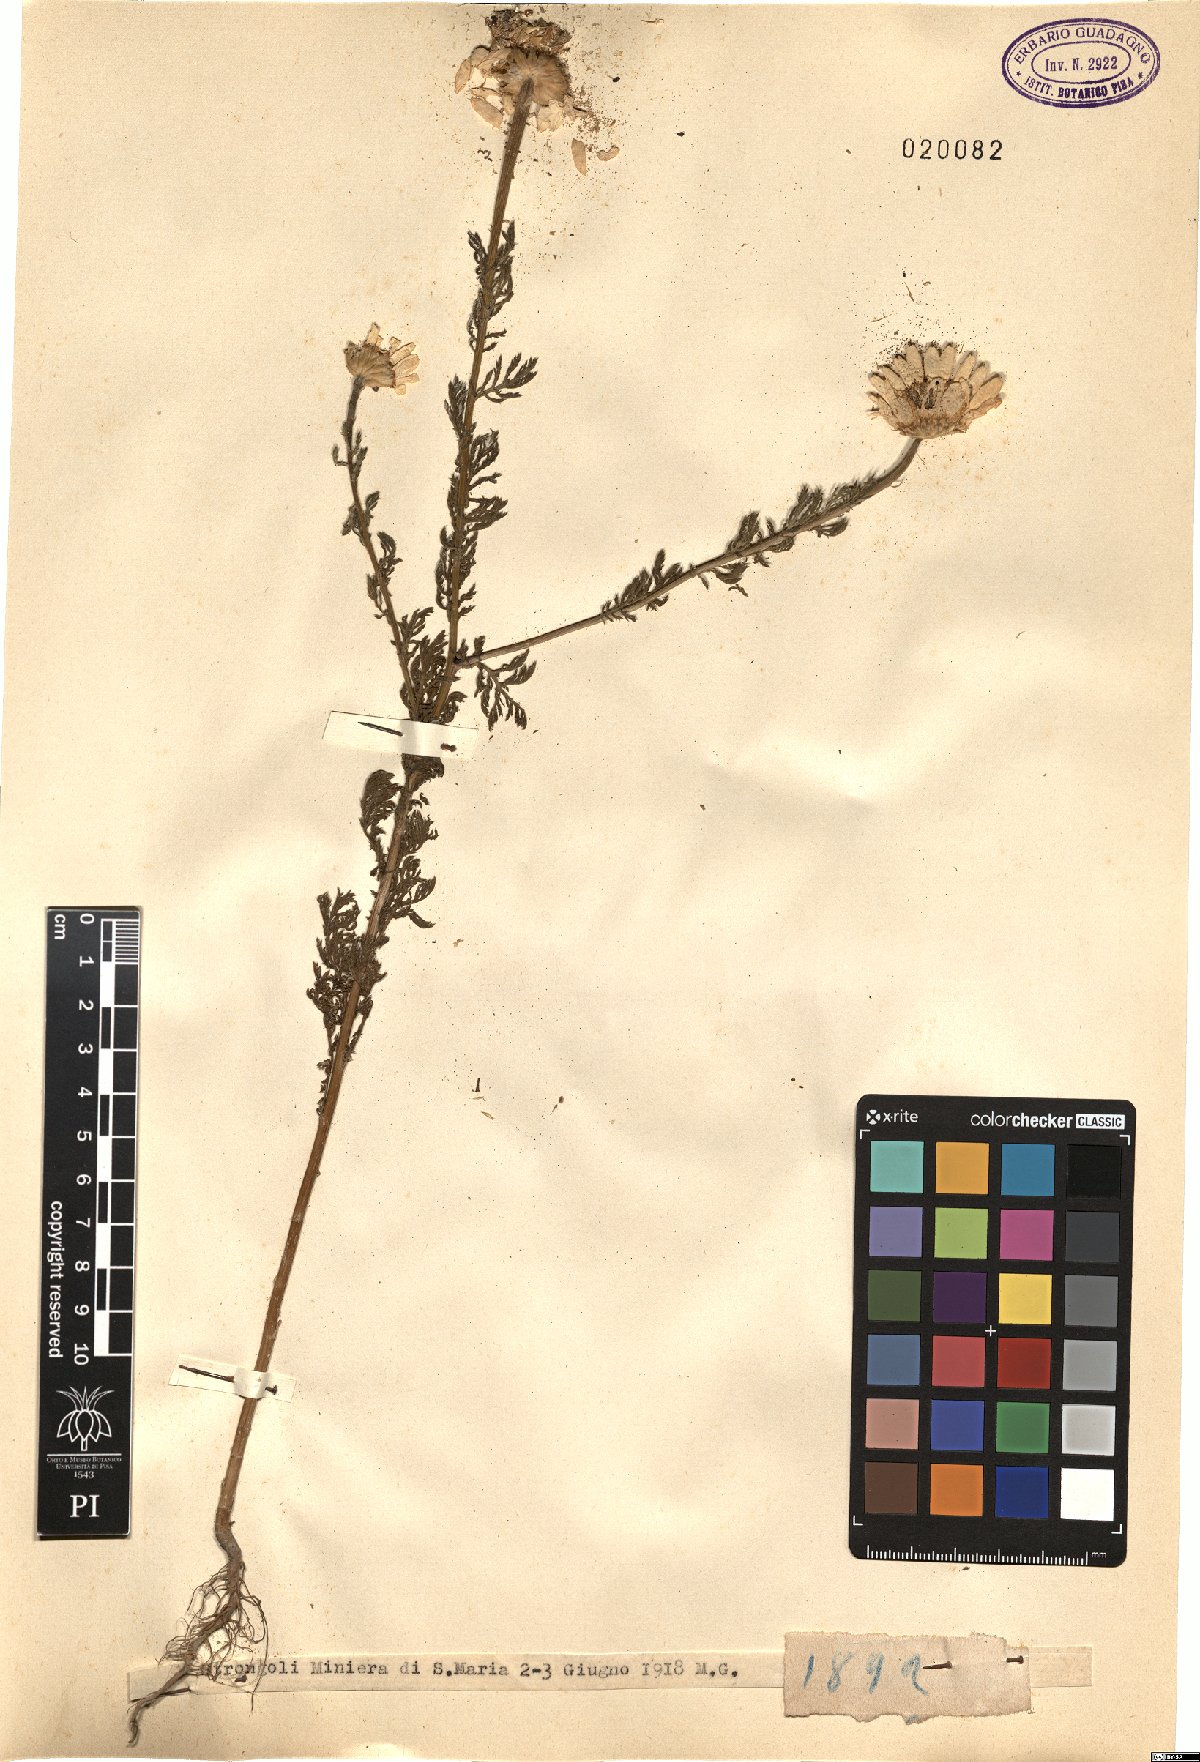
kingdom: Plantae
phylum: Tracheophyta
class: Magnoliopsida
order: Asterales
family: Asteraceae
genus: Anthemis
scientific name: Anthemis
